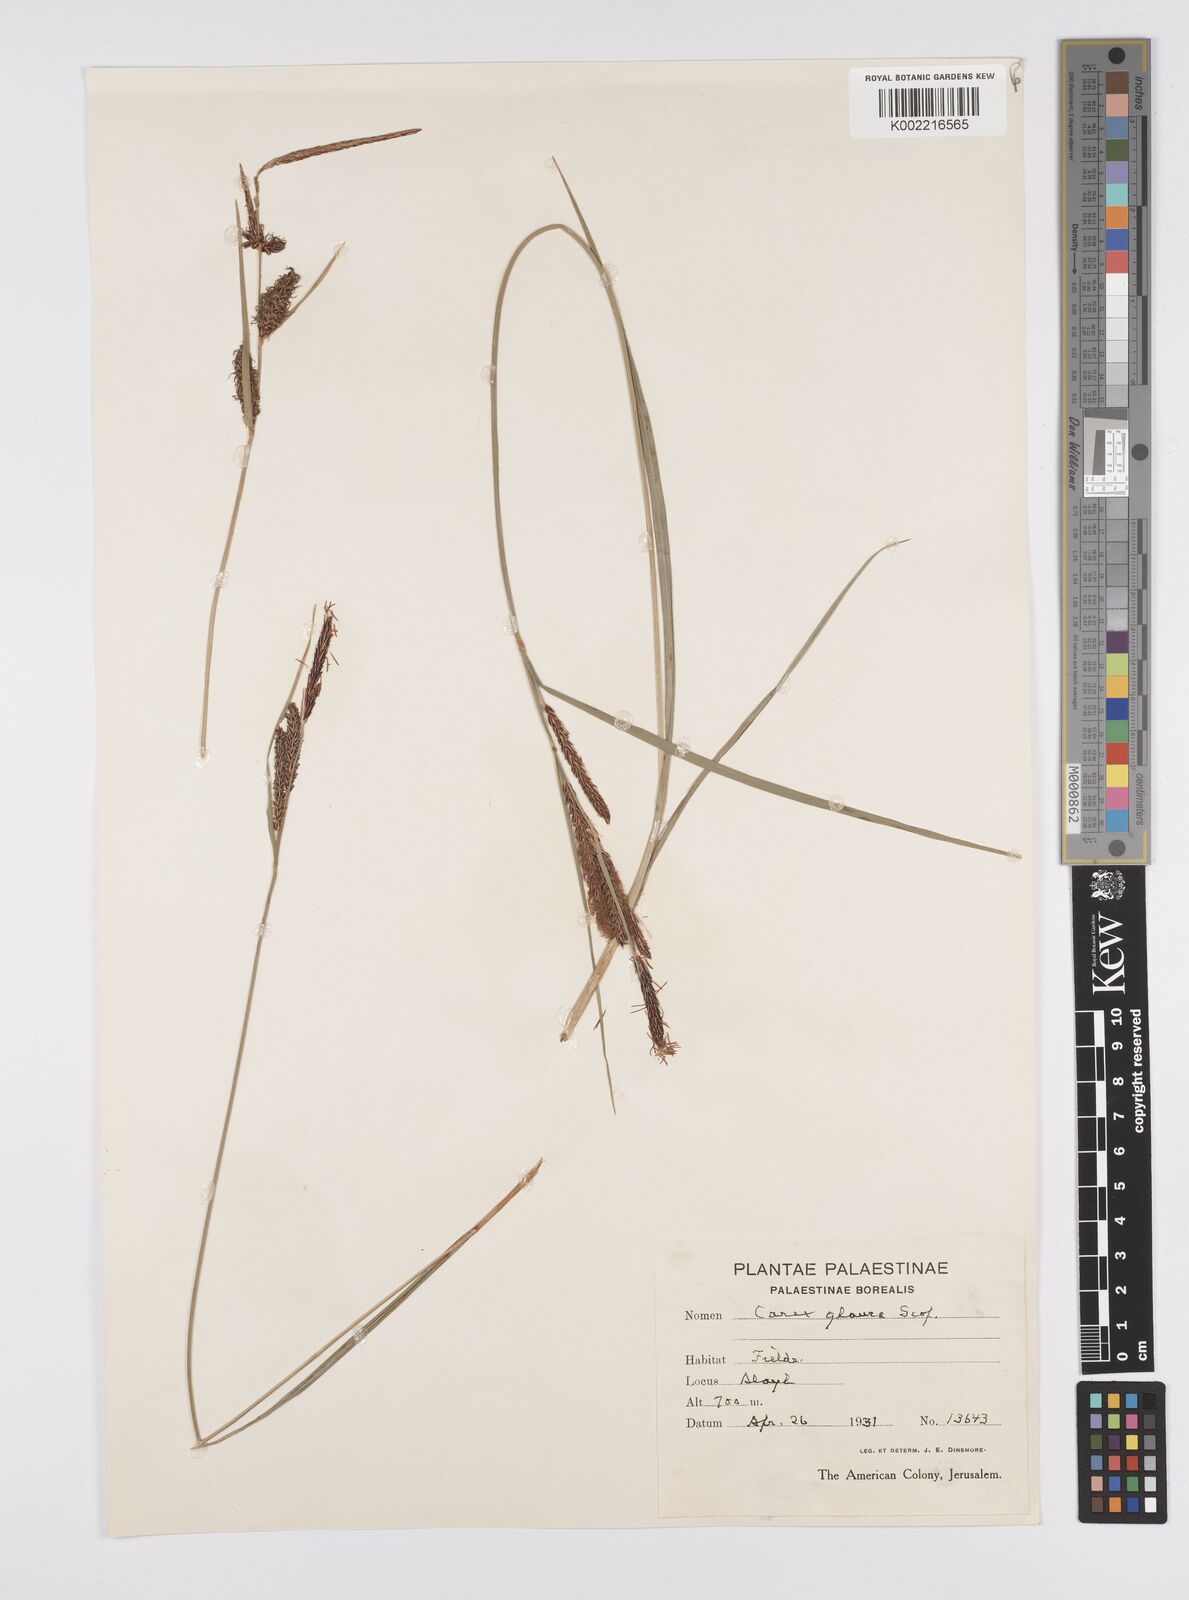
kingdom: Plantae
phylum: Tracheophyta
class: Liliopsida
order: Poales
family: Cyperaceae
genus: Carex
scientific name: Carex flacca
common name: Glaucous sedge
